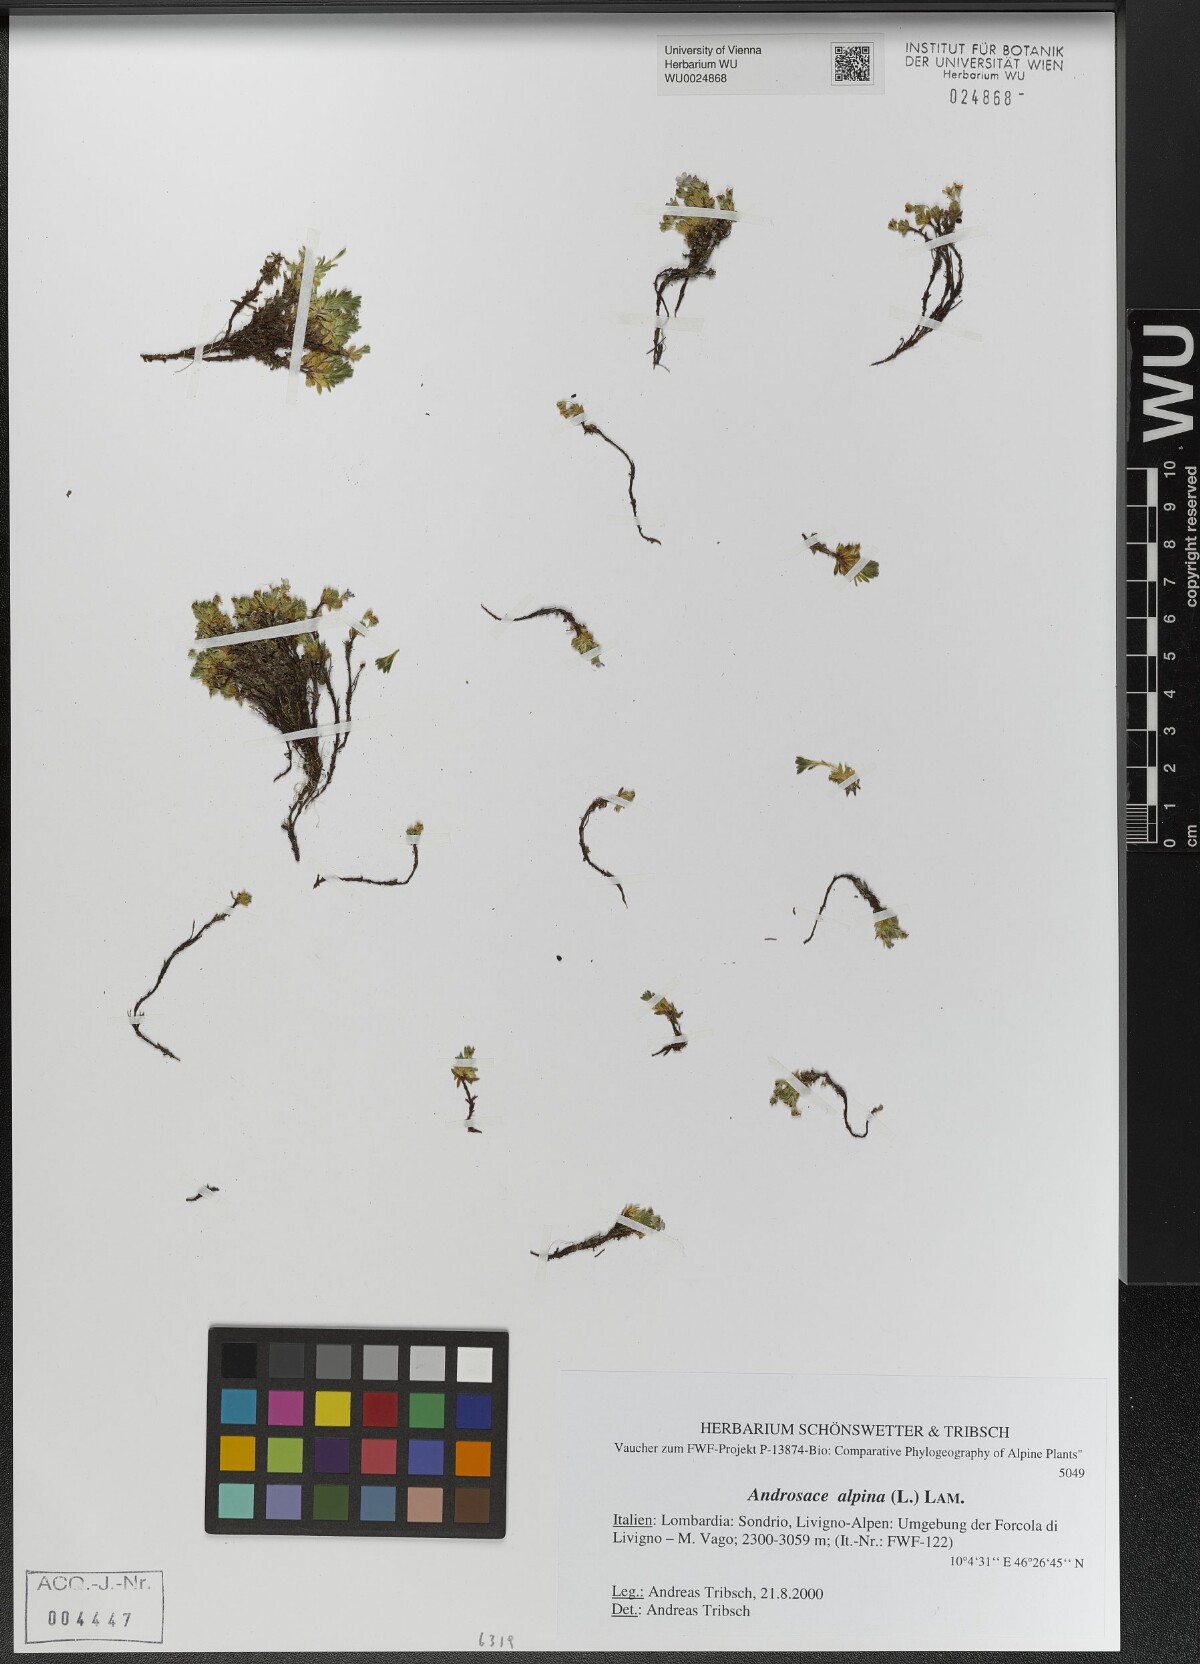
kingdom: Plantae
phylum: Tracheophyta
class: Magnoliopsida
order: Ericales
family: Primulaceae
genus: Androsace
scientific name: Androsace alpina
